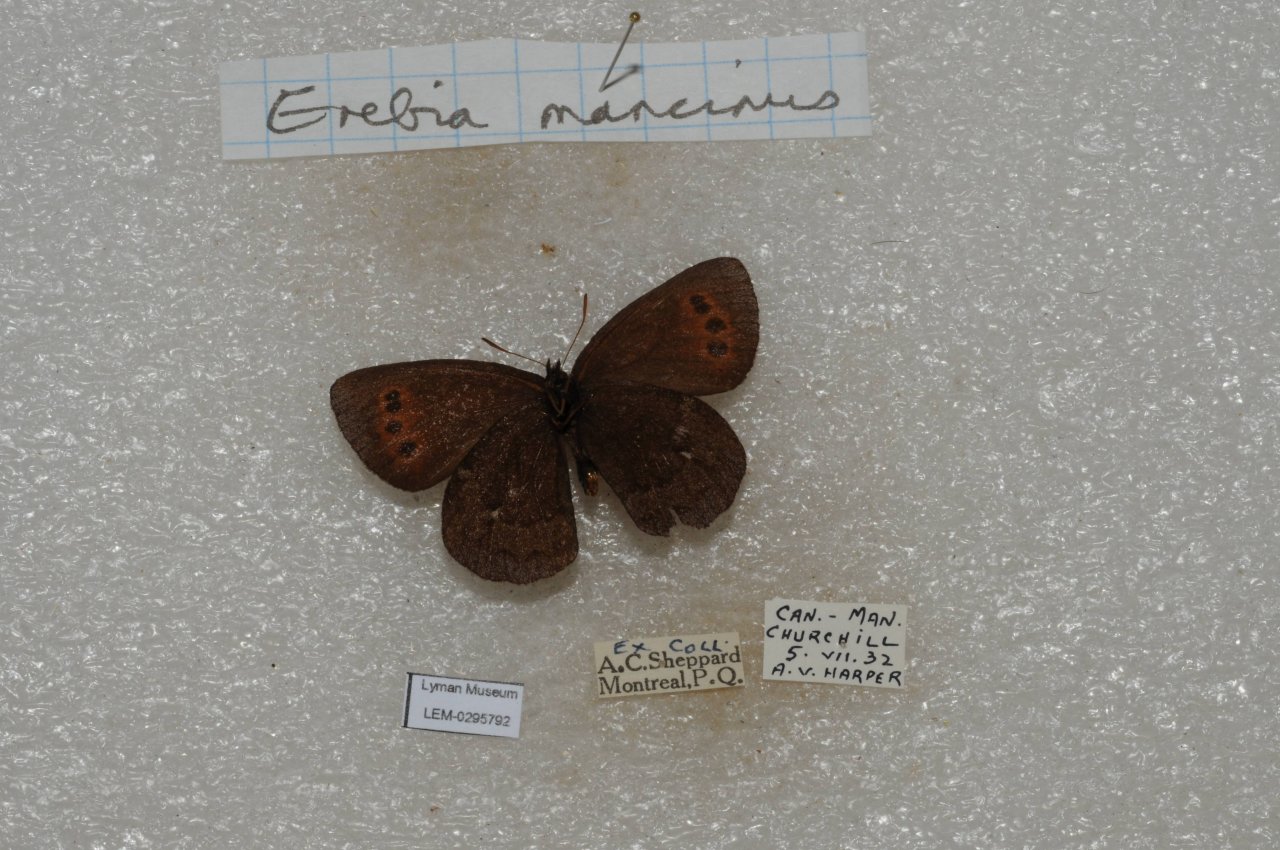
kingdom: Animalia
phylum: Arthropoda
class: Insecta
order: Lepidoptera
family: Nymphalidae
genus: Erebia
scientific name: Erebia disa
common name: Taiga Alpine
